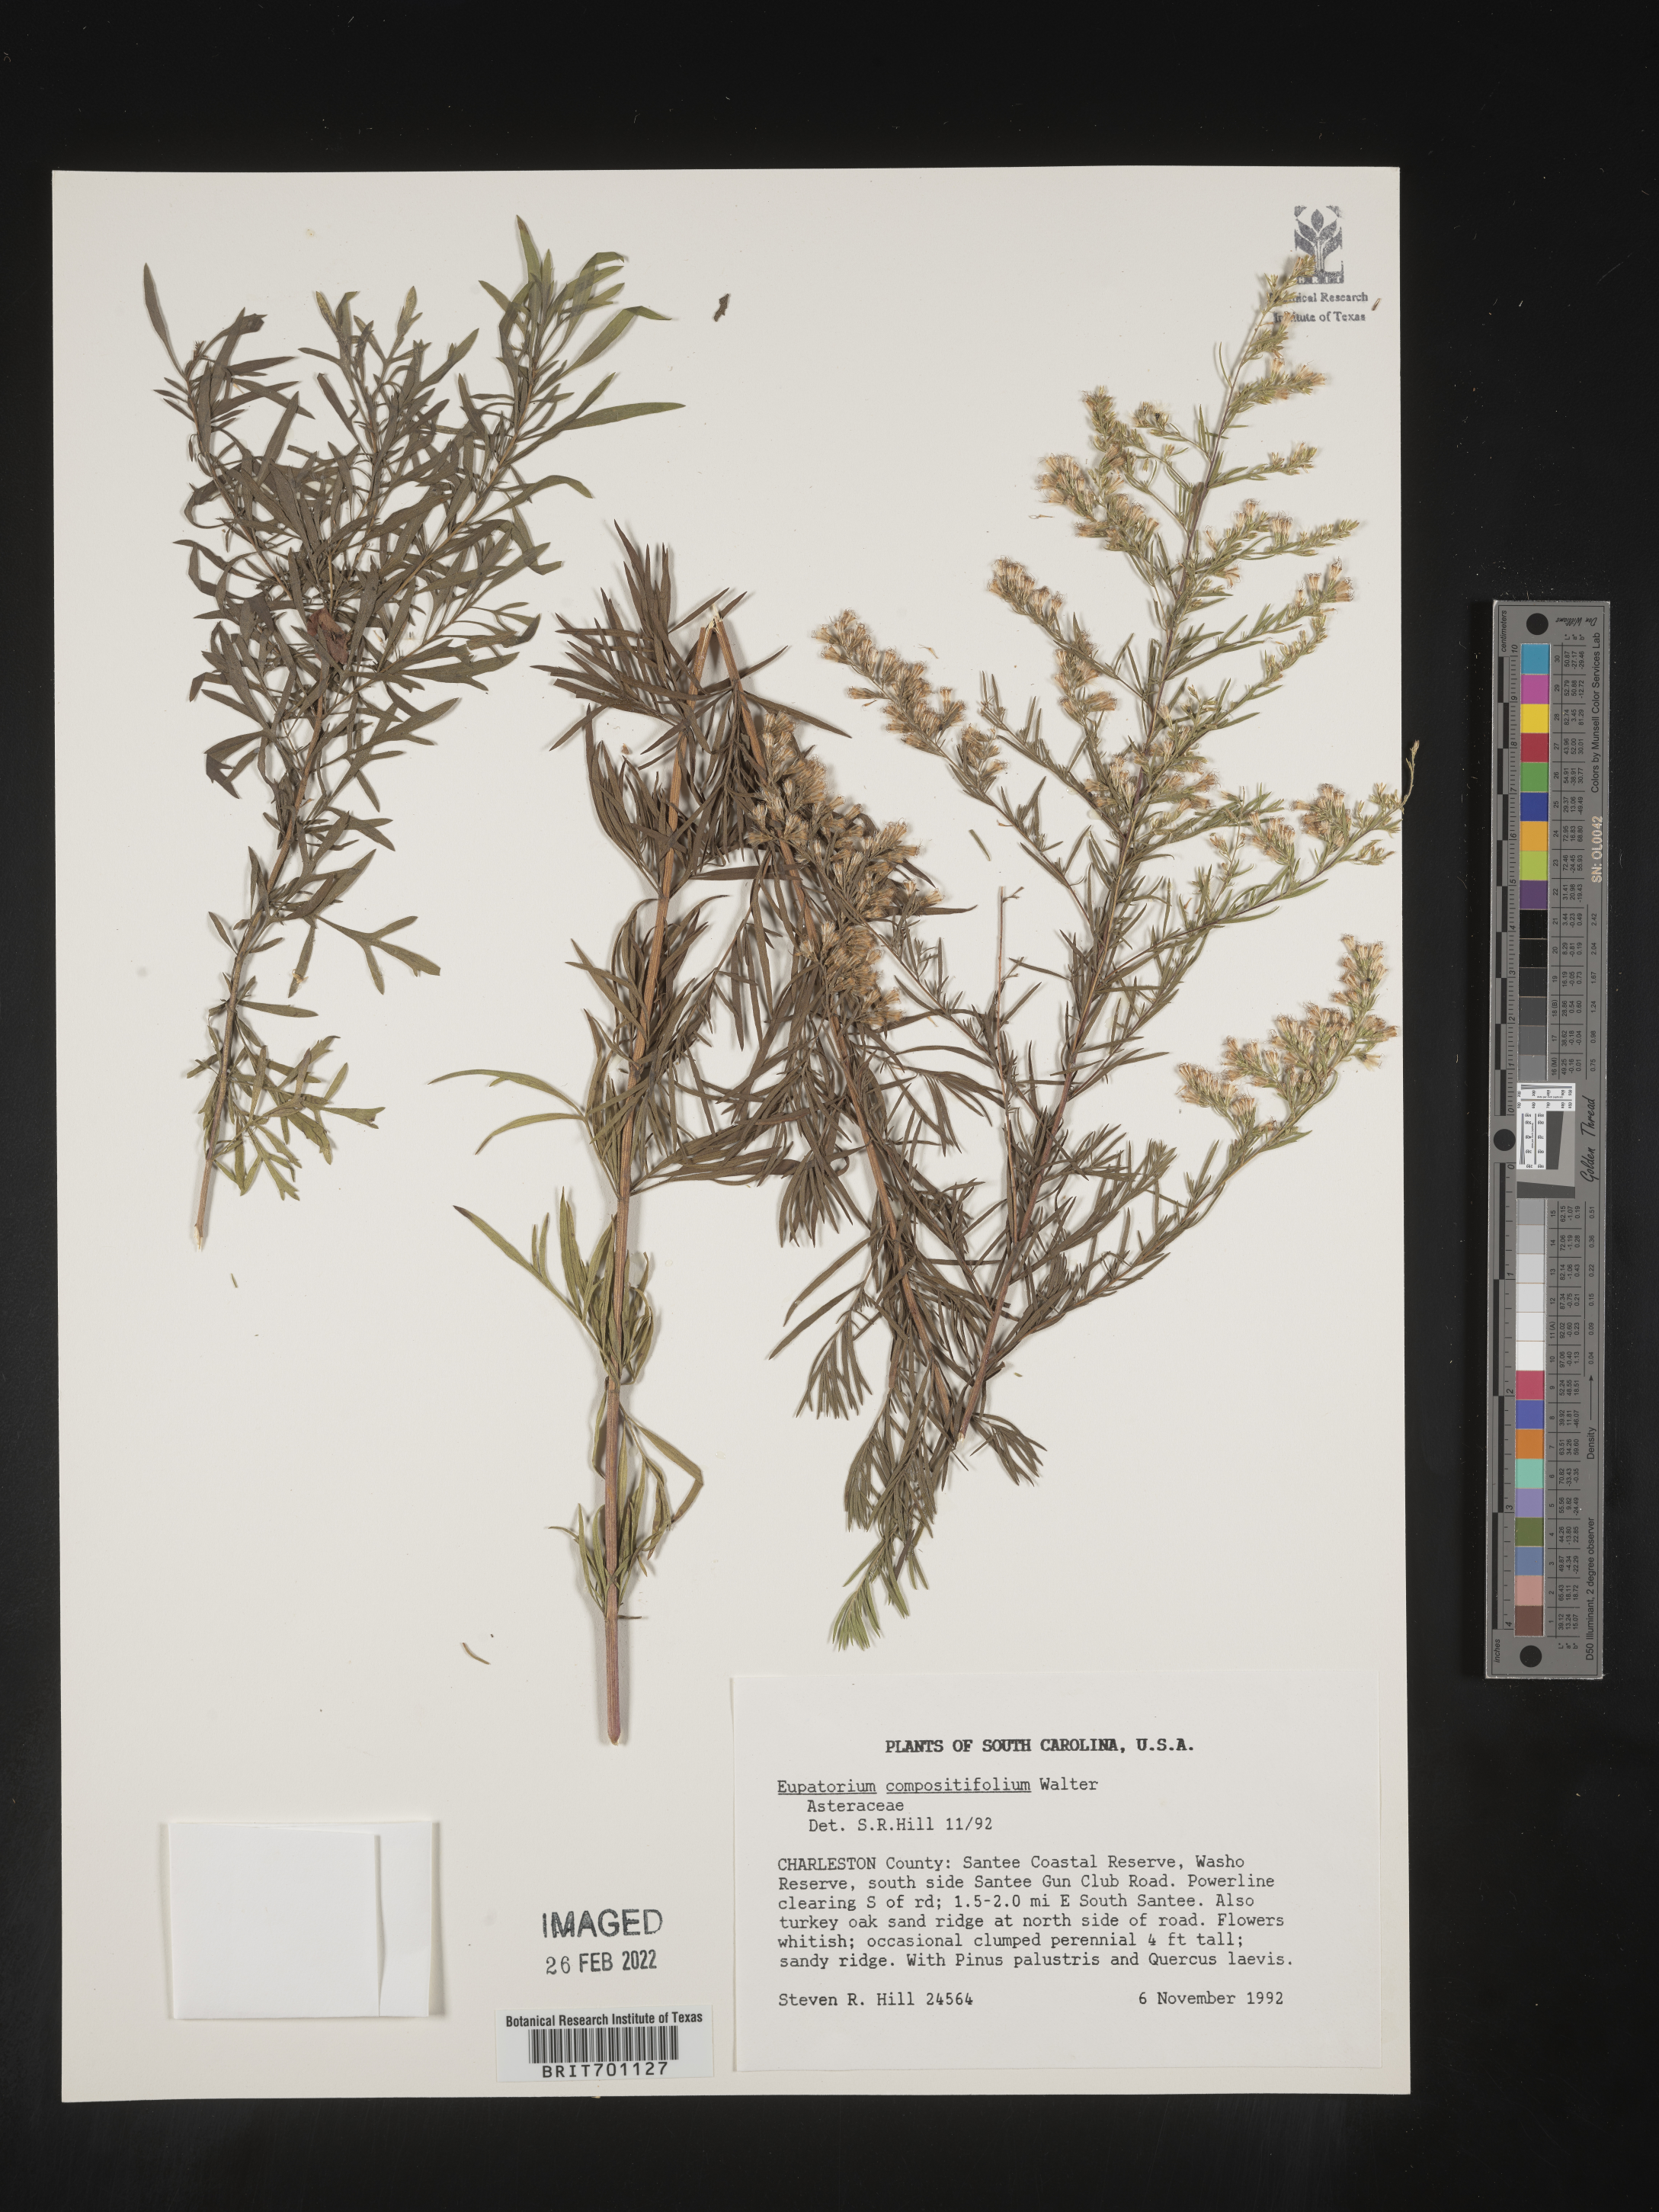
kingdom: Plantae
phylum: Tracheophyta
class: Magnoliopsida
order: Asterales
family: Asteraceae
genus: Eupatorium
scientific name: Eupatorium compositifolium
